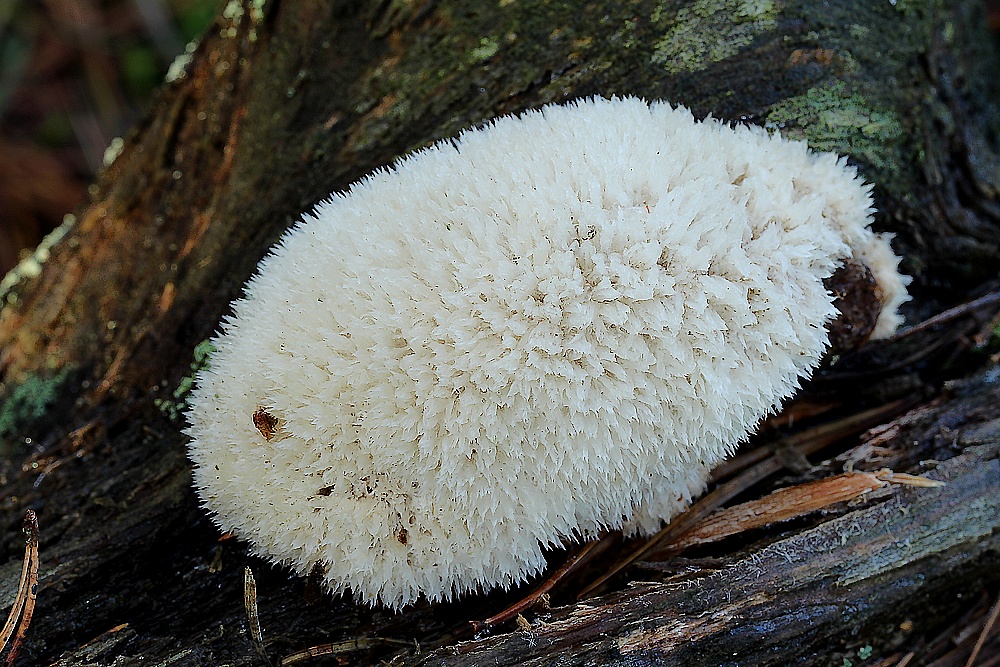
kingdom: Fungi
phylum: Basidiomycota
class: Agaricomycetes
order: Polyporales
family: Dacryobolaceae
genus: Postia
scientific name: Postia ptychogaster
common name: støvende kødporesvamp
